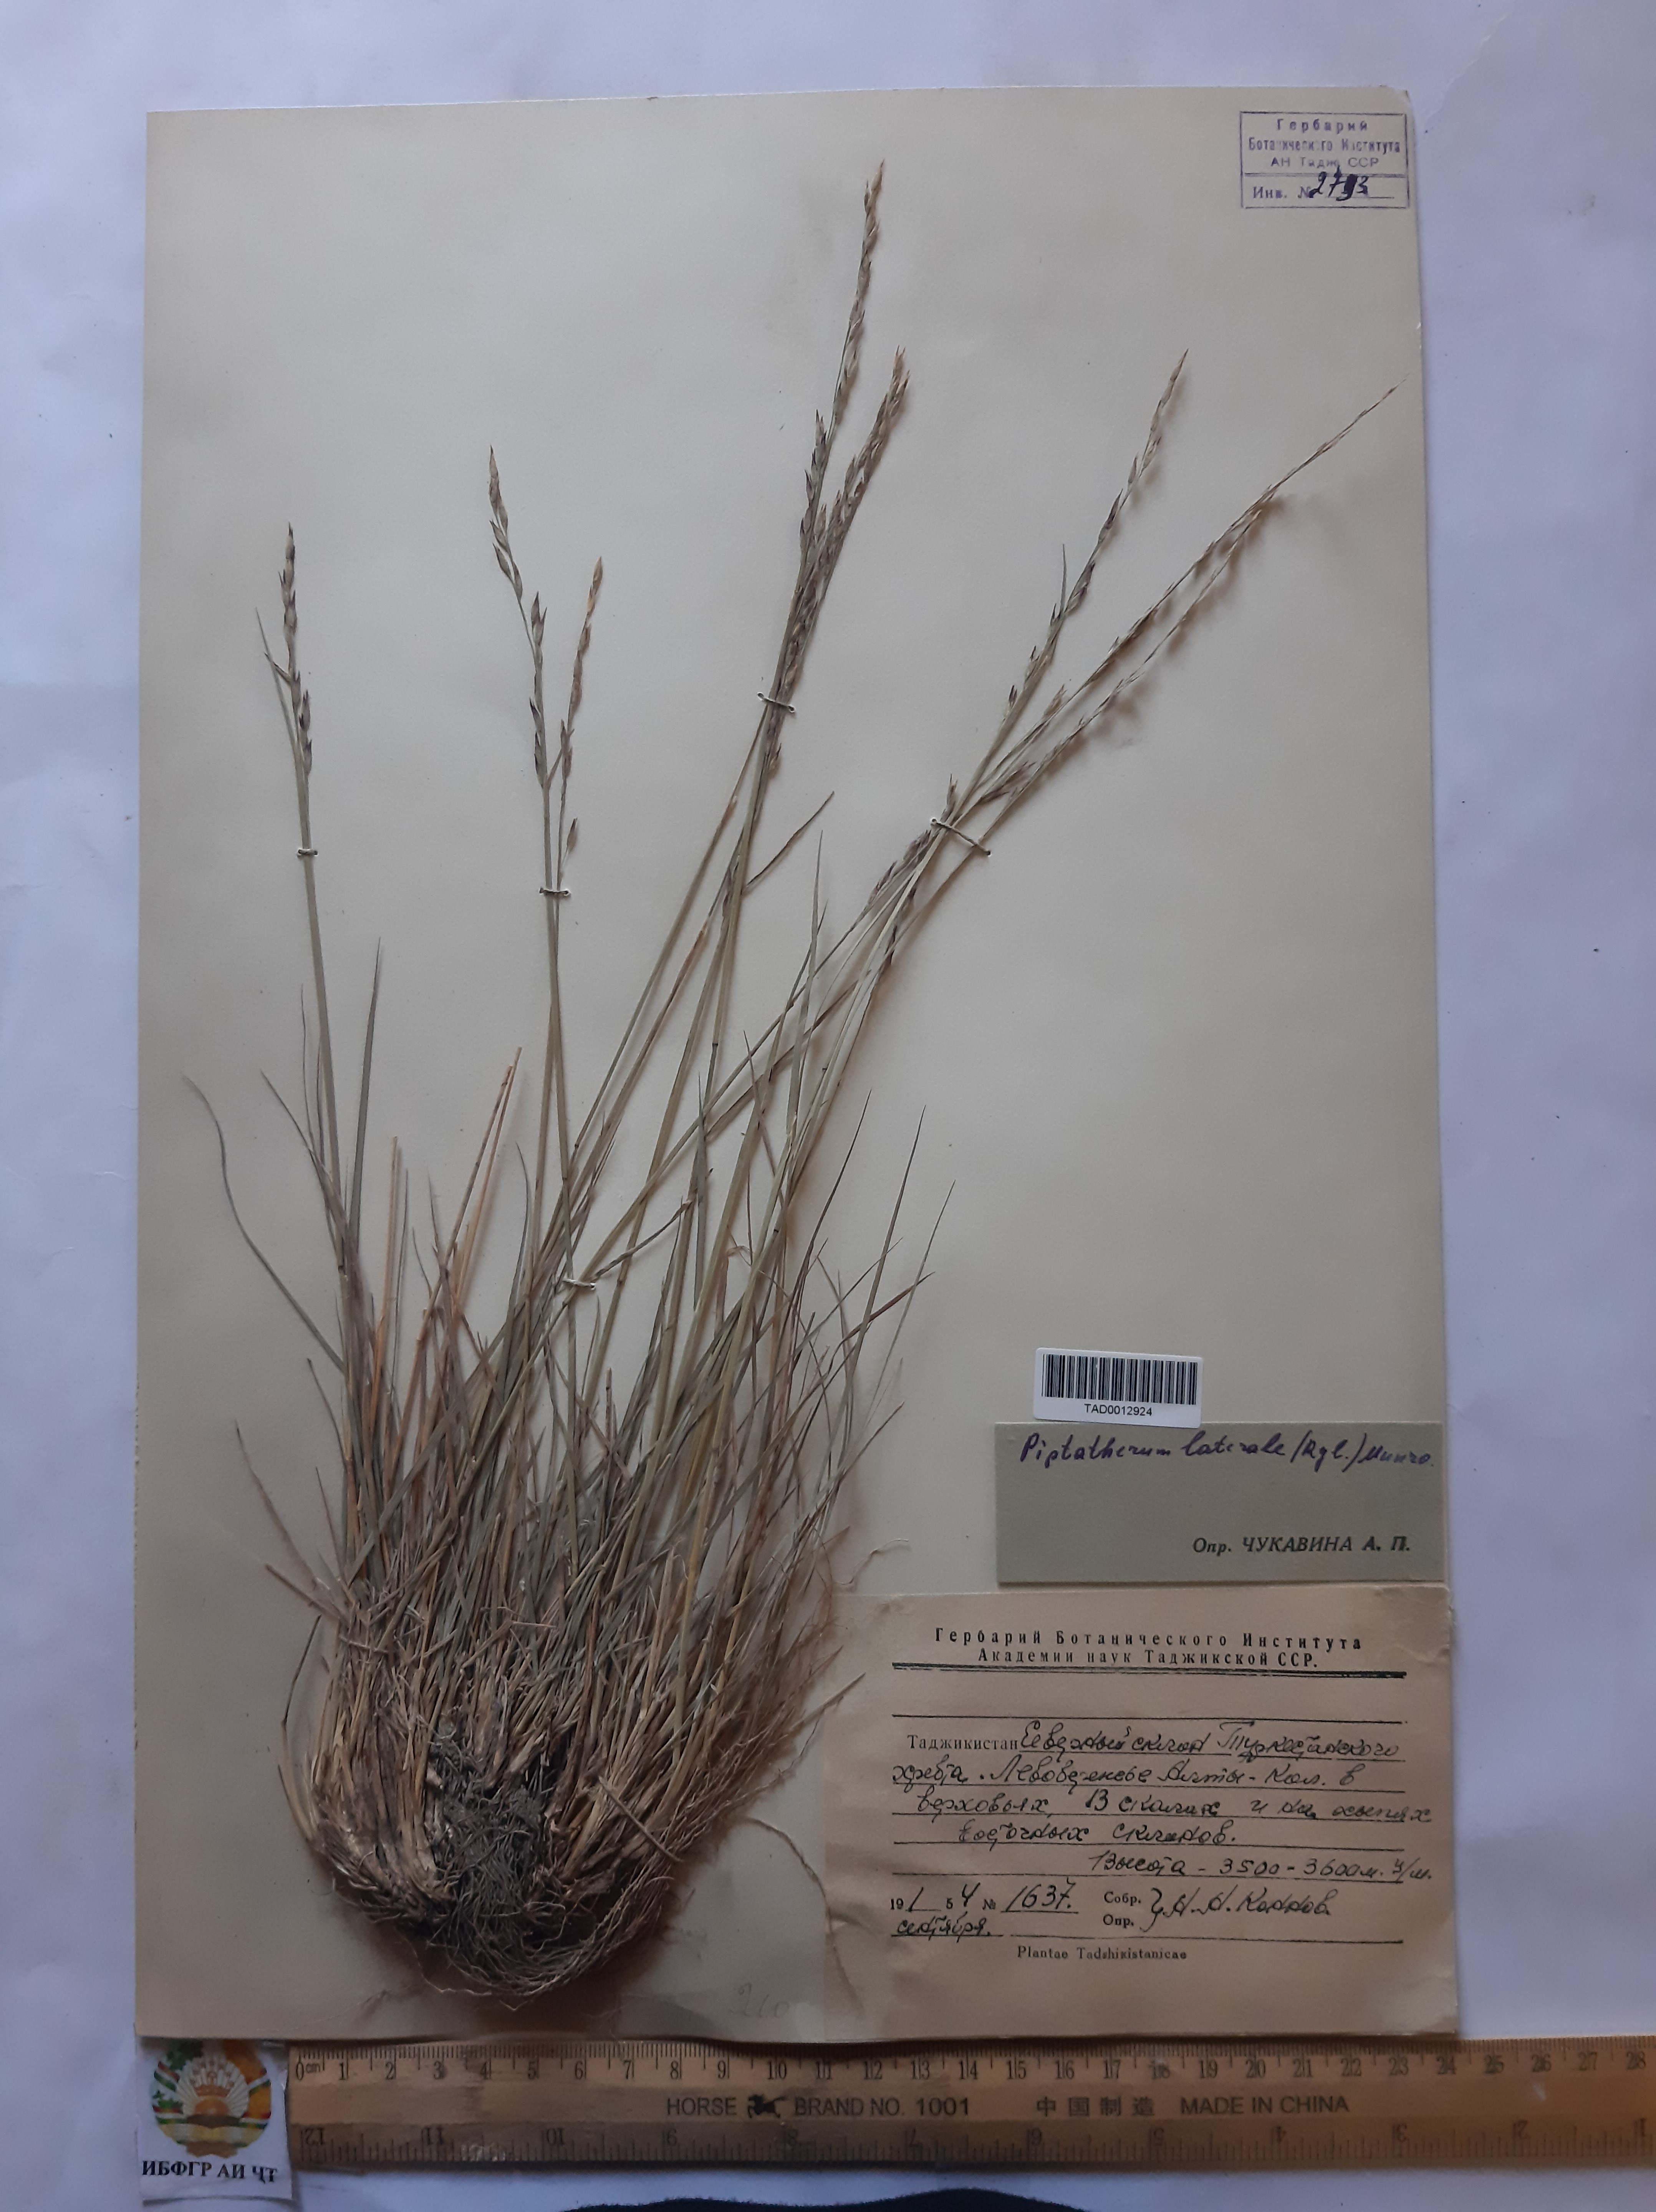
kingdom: Plantae
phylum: Tracheophyta
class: Liliopsida
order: Poales
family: Poaceae
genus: Piptatherum
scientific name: Piptatherum laterale
